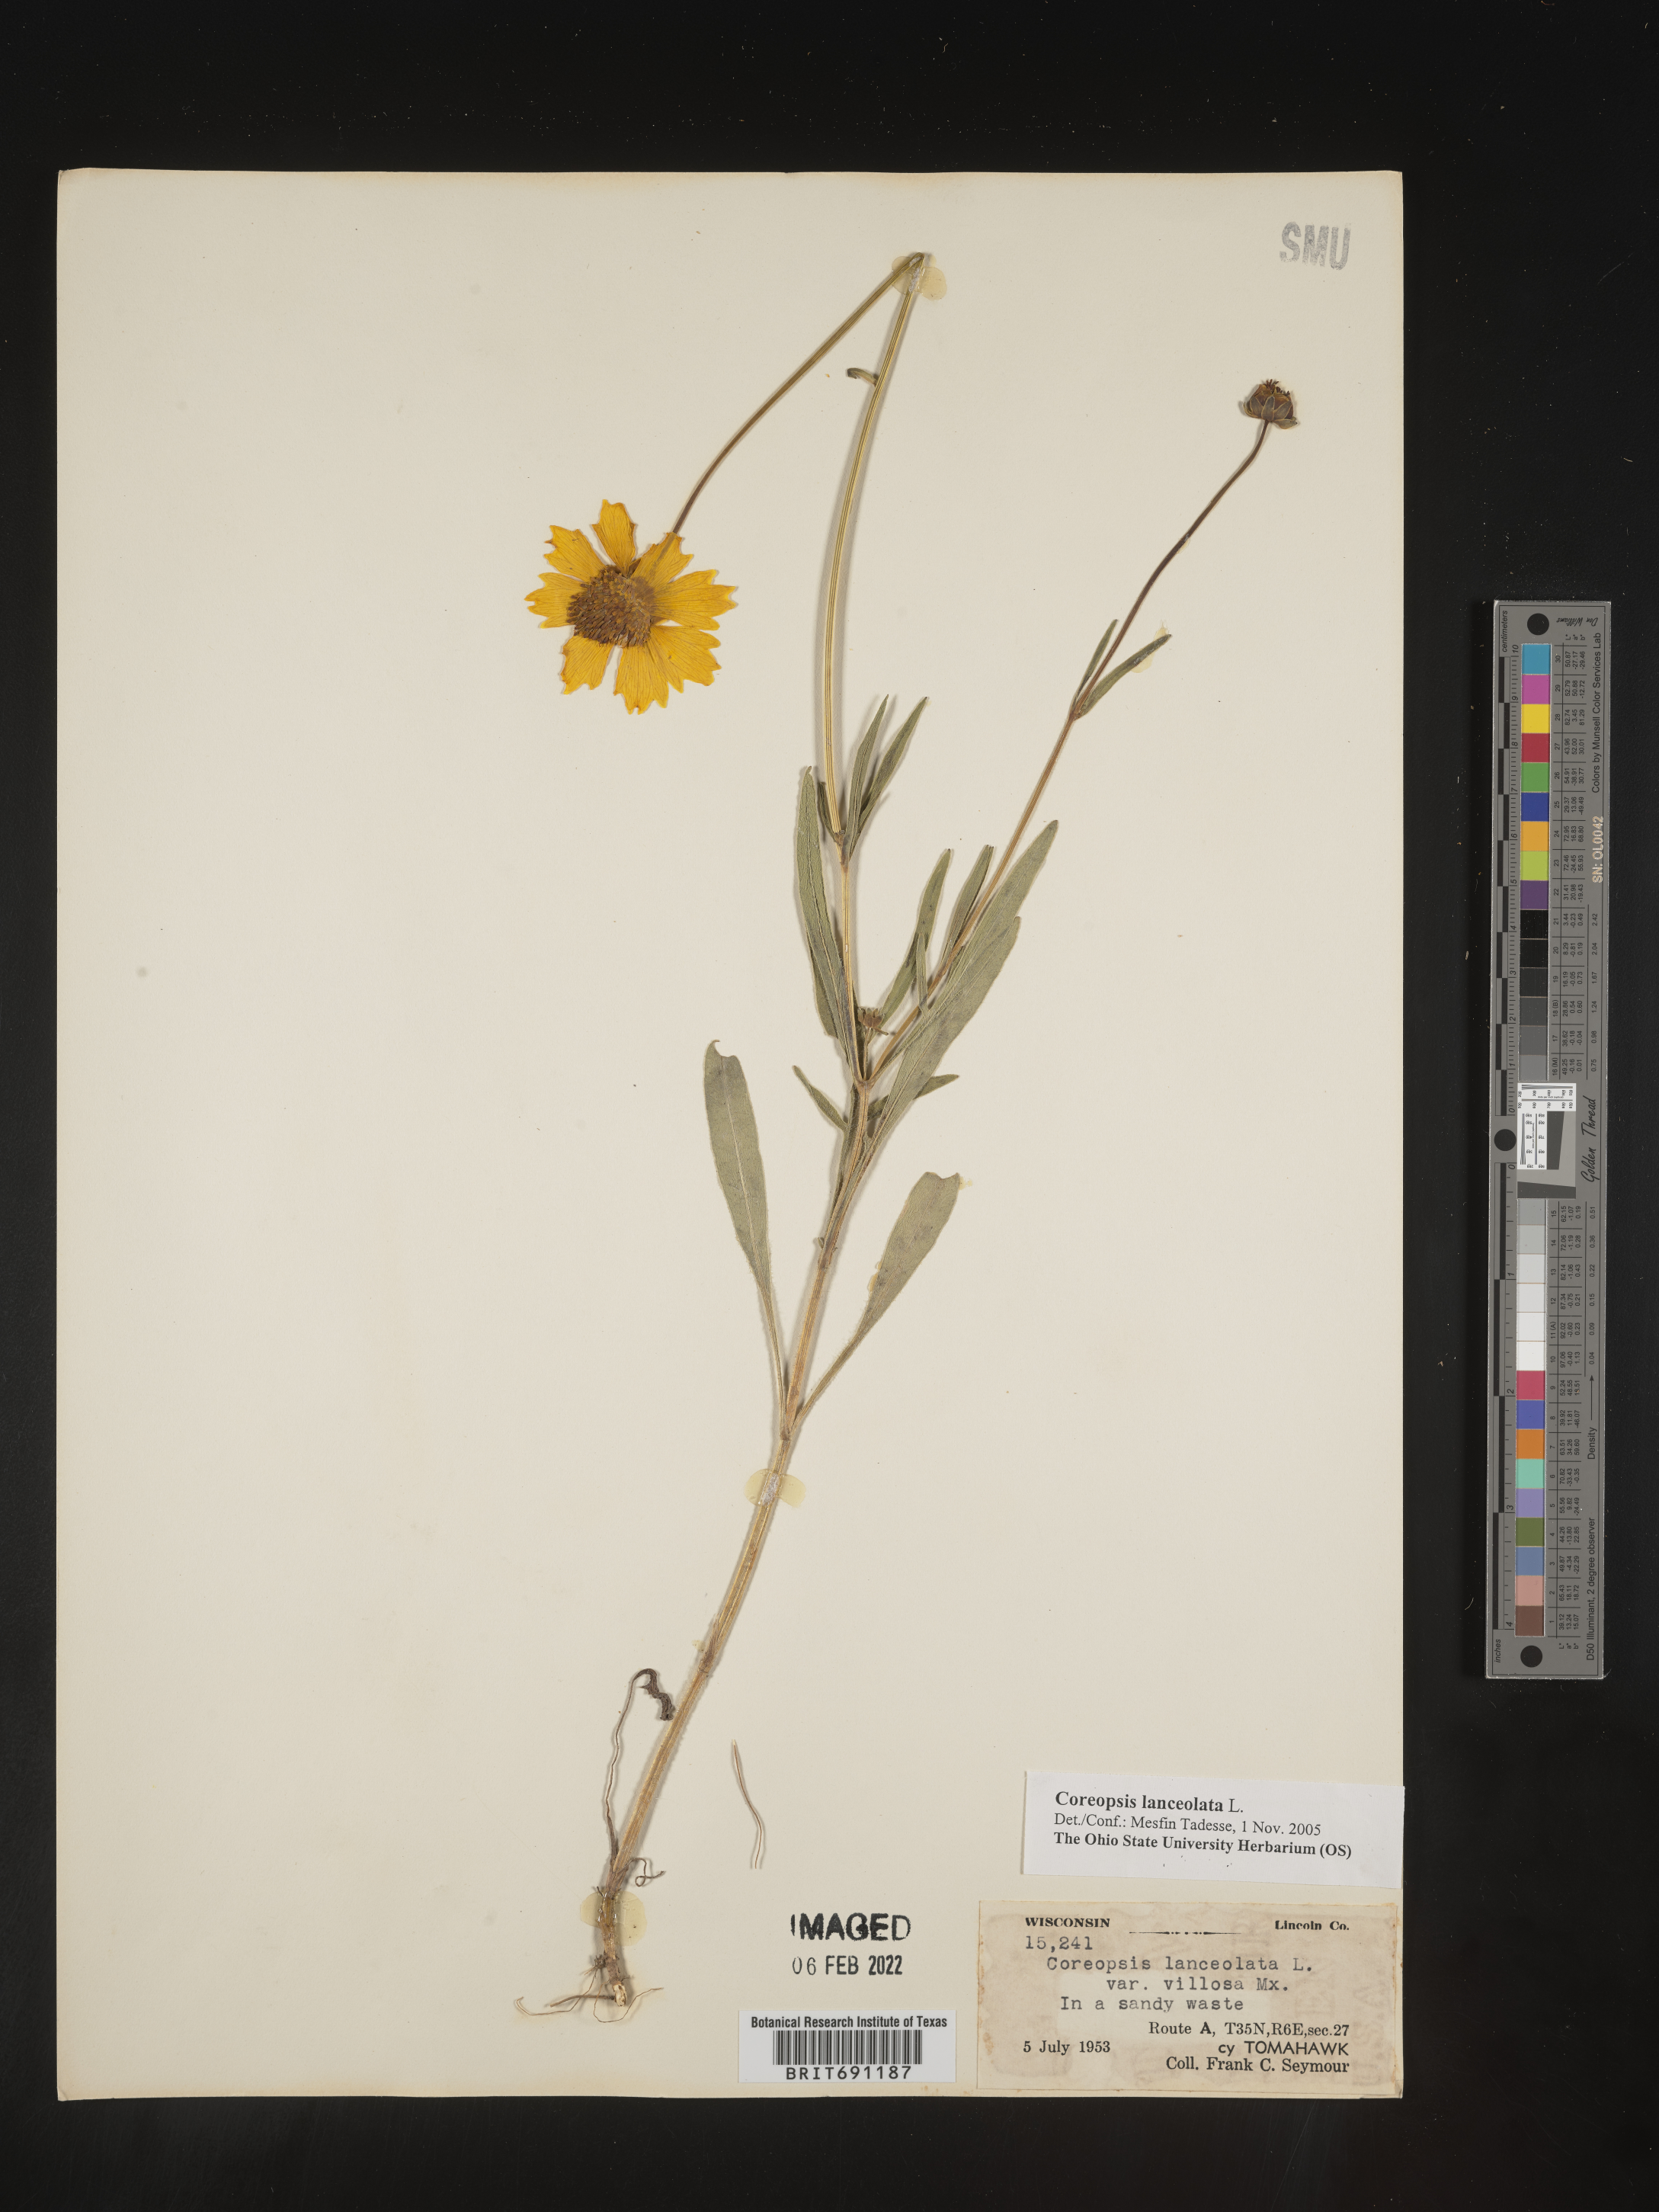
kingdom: Plantae
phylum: Tracheophyta
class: Magnoliopsida
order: Asterales
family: Asteraceae
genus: Coreopsis
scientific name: Coreopsis lanceolata
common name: Garden coreopsis
